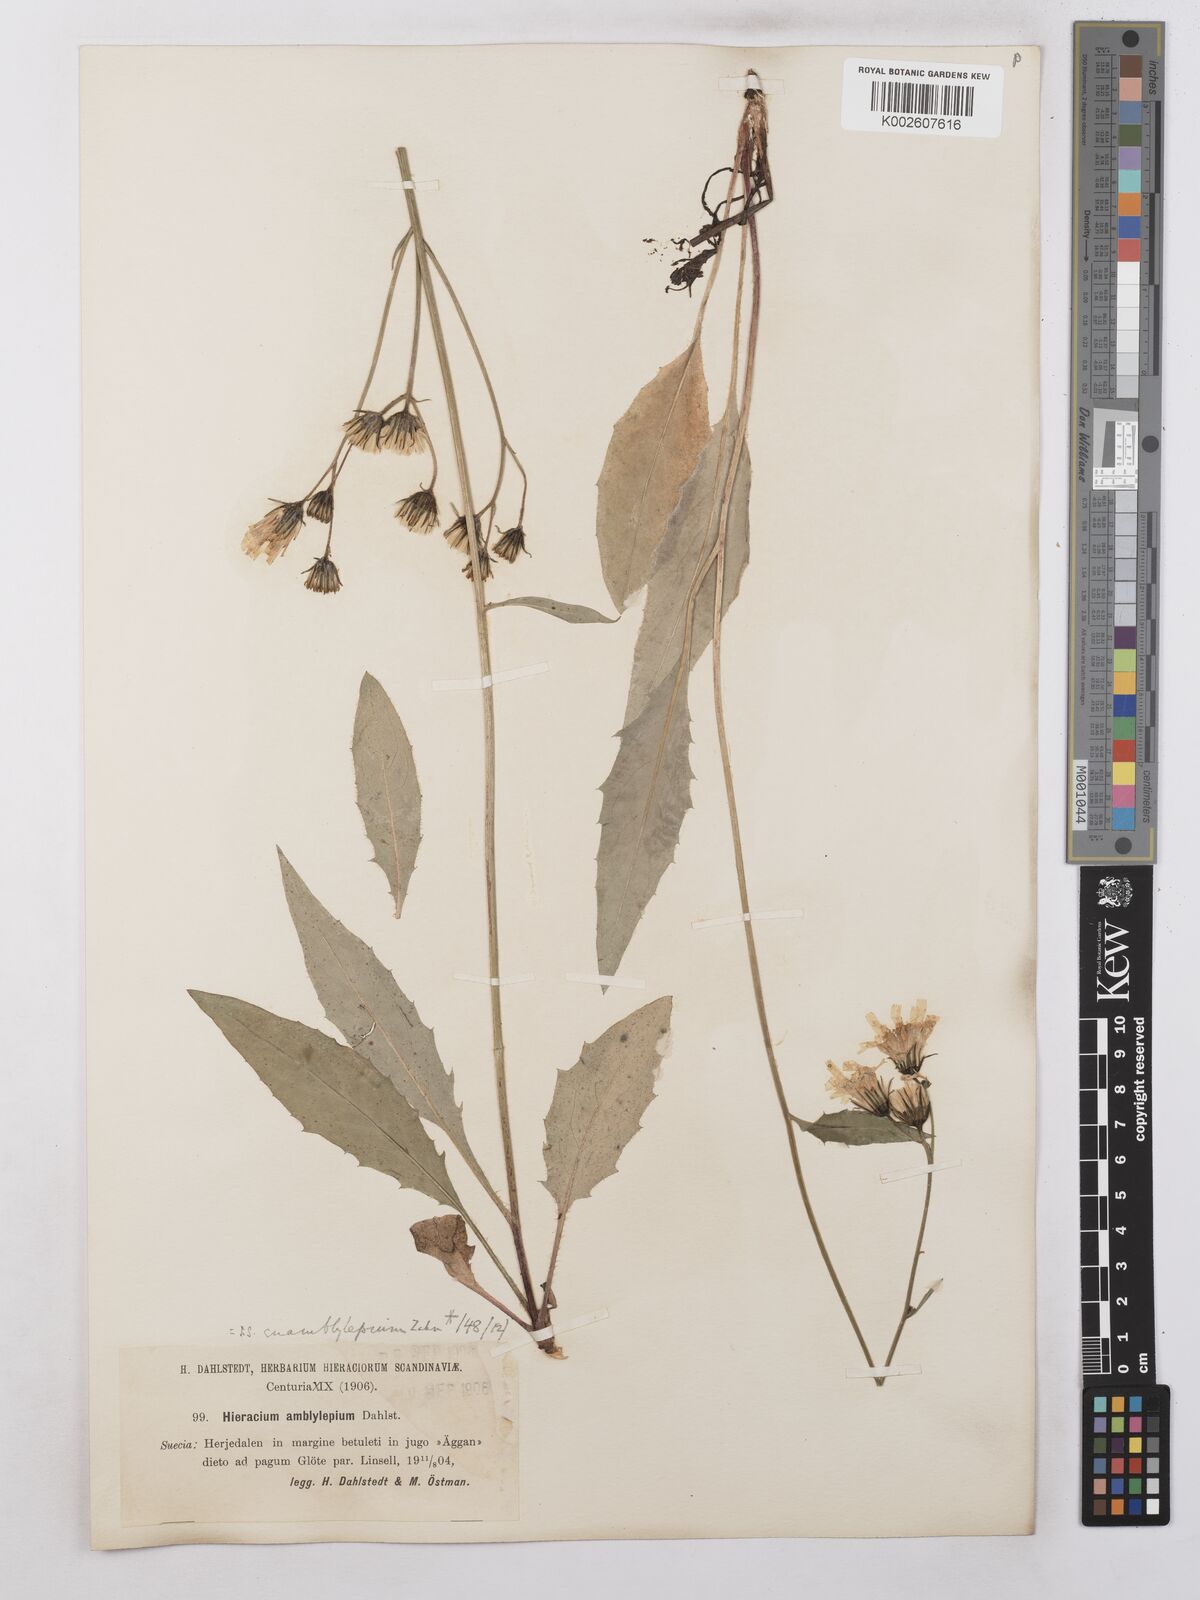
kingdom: Plantae
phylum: Tracheophyta
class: Magnoliopsida
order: Asterales
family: Asteraceae
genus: Hieracium
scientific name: Hieracium subramosum
